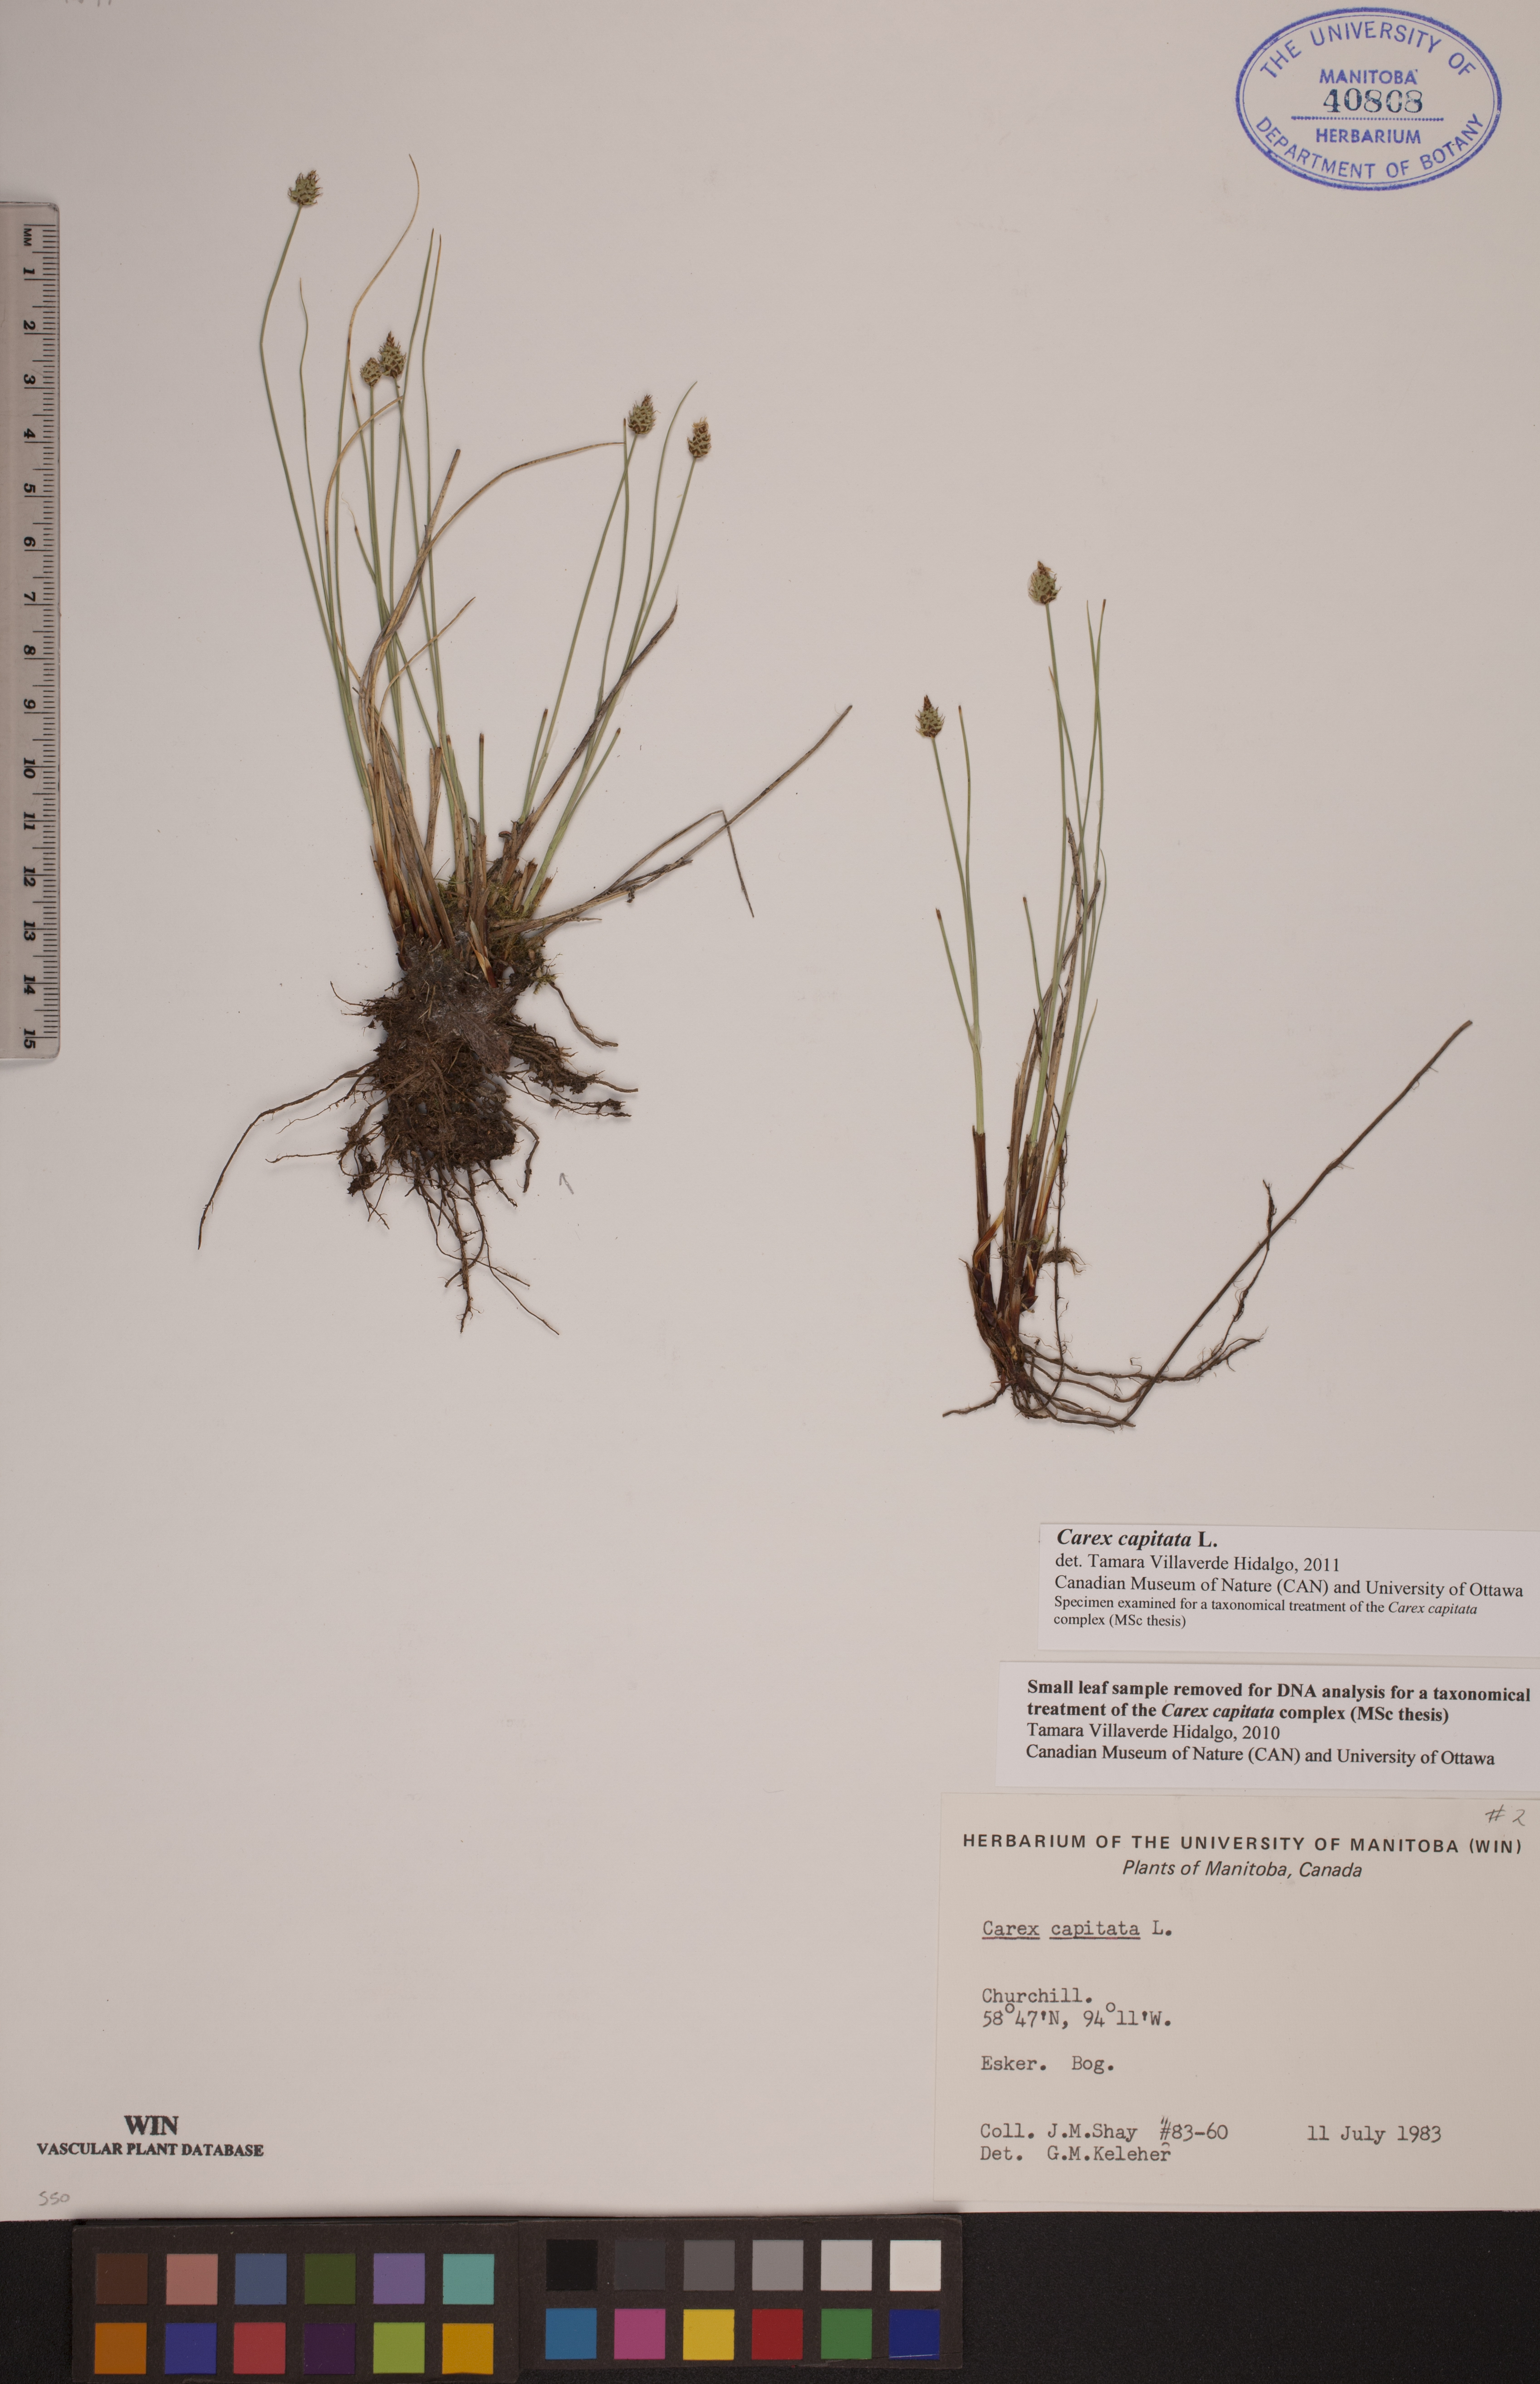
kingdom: Plantae
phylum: Tracheophyta
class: Liliopsida
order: Poales
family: Cyperaceae
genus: Carex
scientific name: Carex capitata
